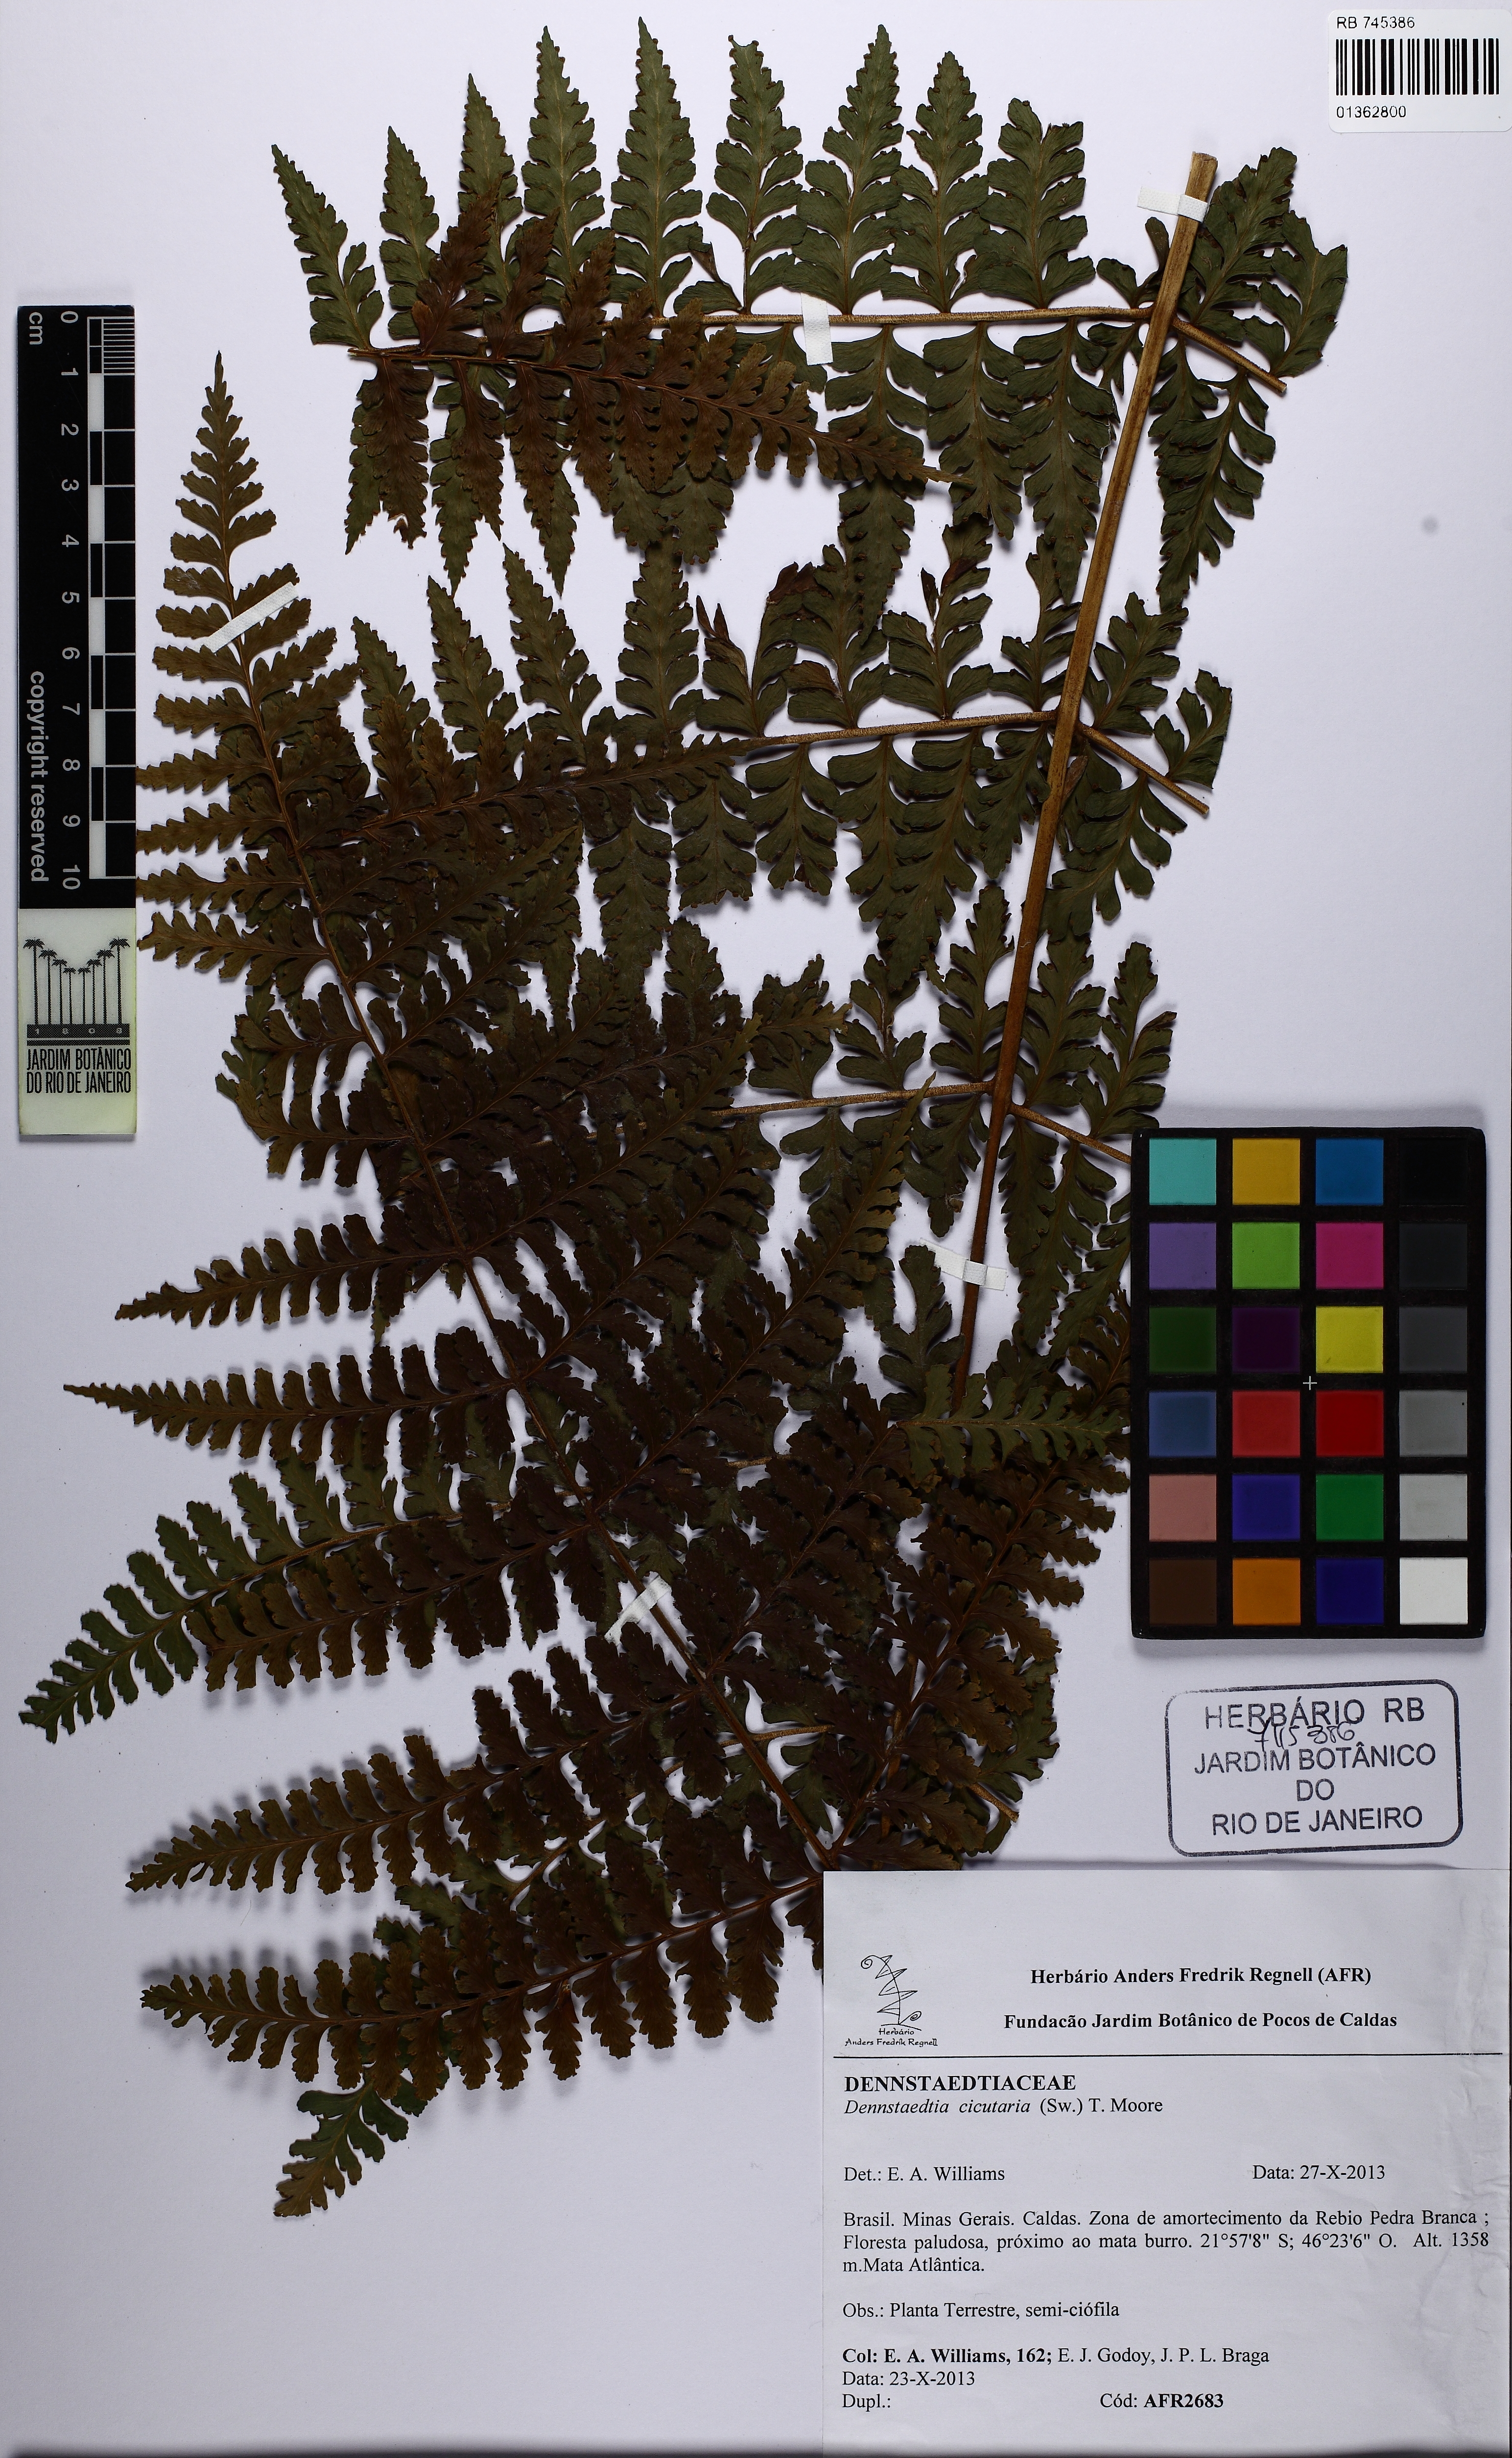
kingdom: Plantae
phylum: Tracheophyta
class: Polypodiopsida
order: Polypodiales
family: Dennstaedtiaceae
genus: Dennstaedtia
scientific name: Dennstaedtia obtusifolia
